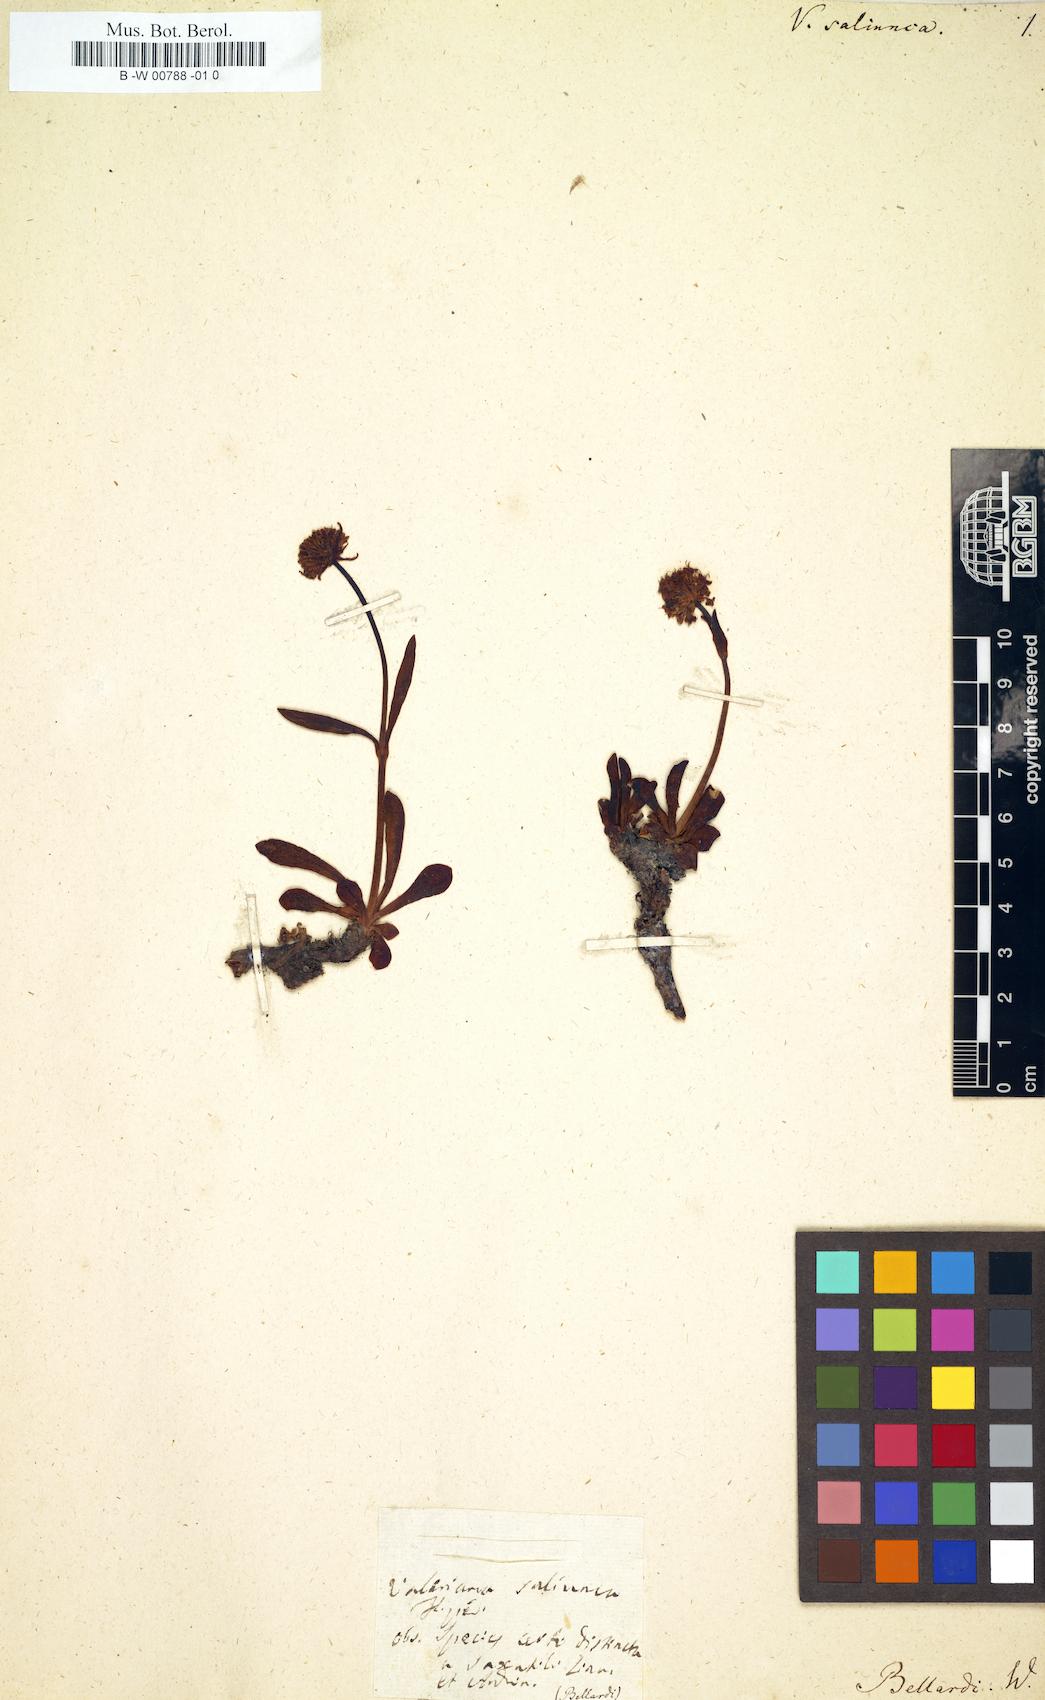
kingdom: Plantae
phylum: Tracheophyta
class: Magnoliopsida
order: Dipsacales
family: Caprifoliaceae
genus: Valeriana
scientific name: Valeriana saliunca
